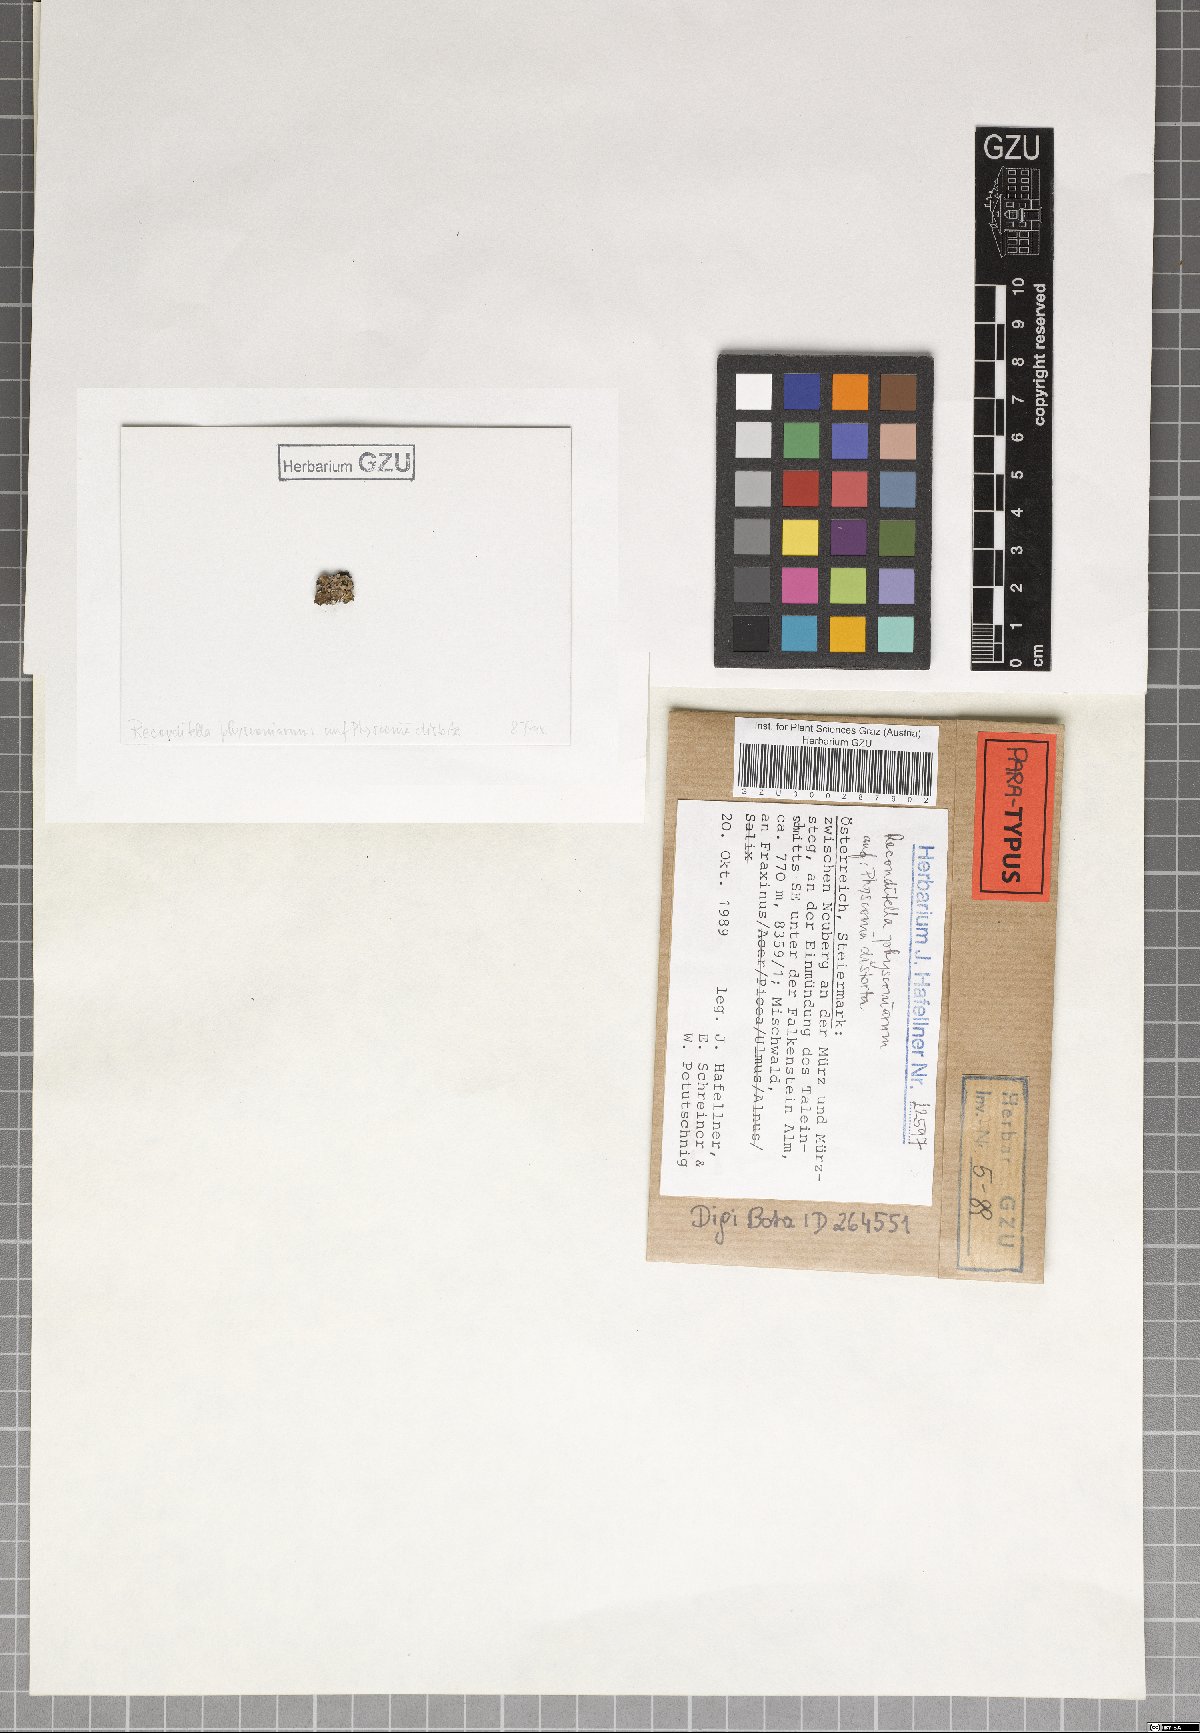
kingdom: Fungi
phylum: Ascomycota
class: Sordariomycetes
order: Sordariales
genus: Reconditella
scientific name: Reconditella physconiarum
